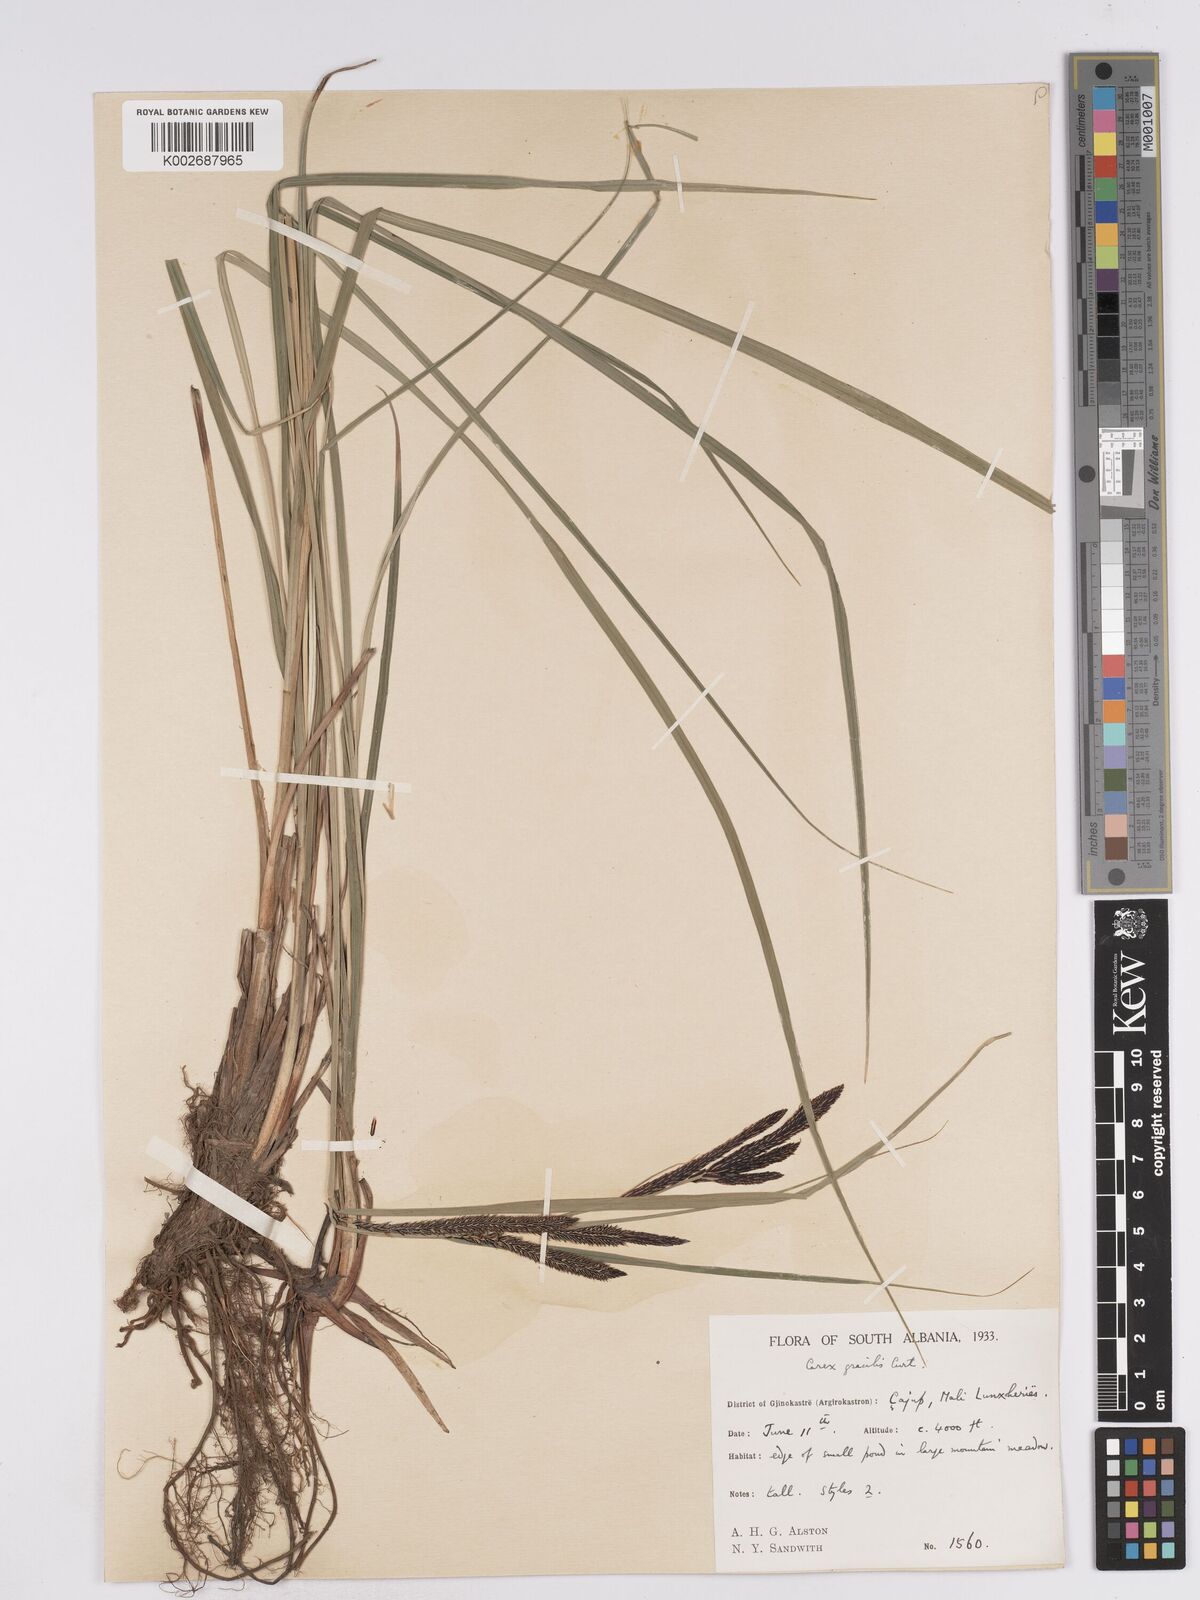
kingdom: Plantae
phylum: Tracheophyta
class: Liliopsida
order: Poales
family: Cyperaceae
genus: Carex
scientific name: Carex acuta
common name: Slender tufted-sedge
